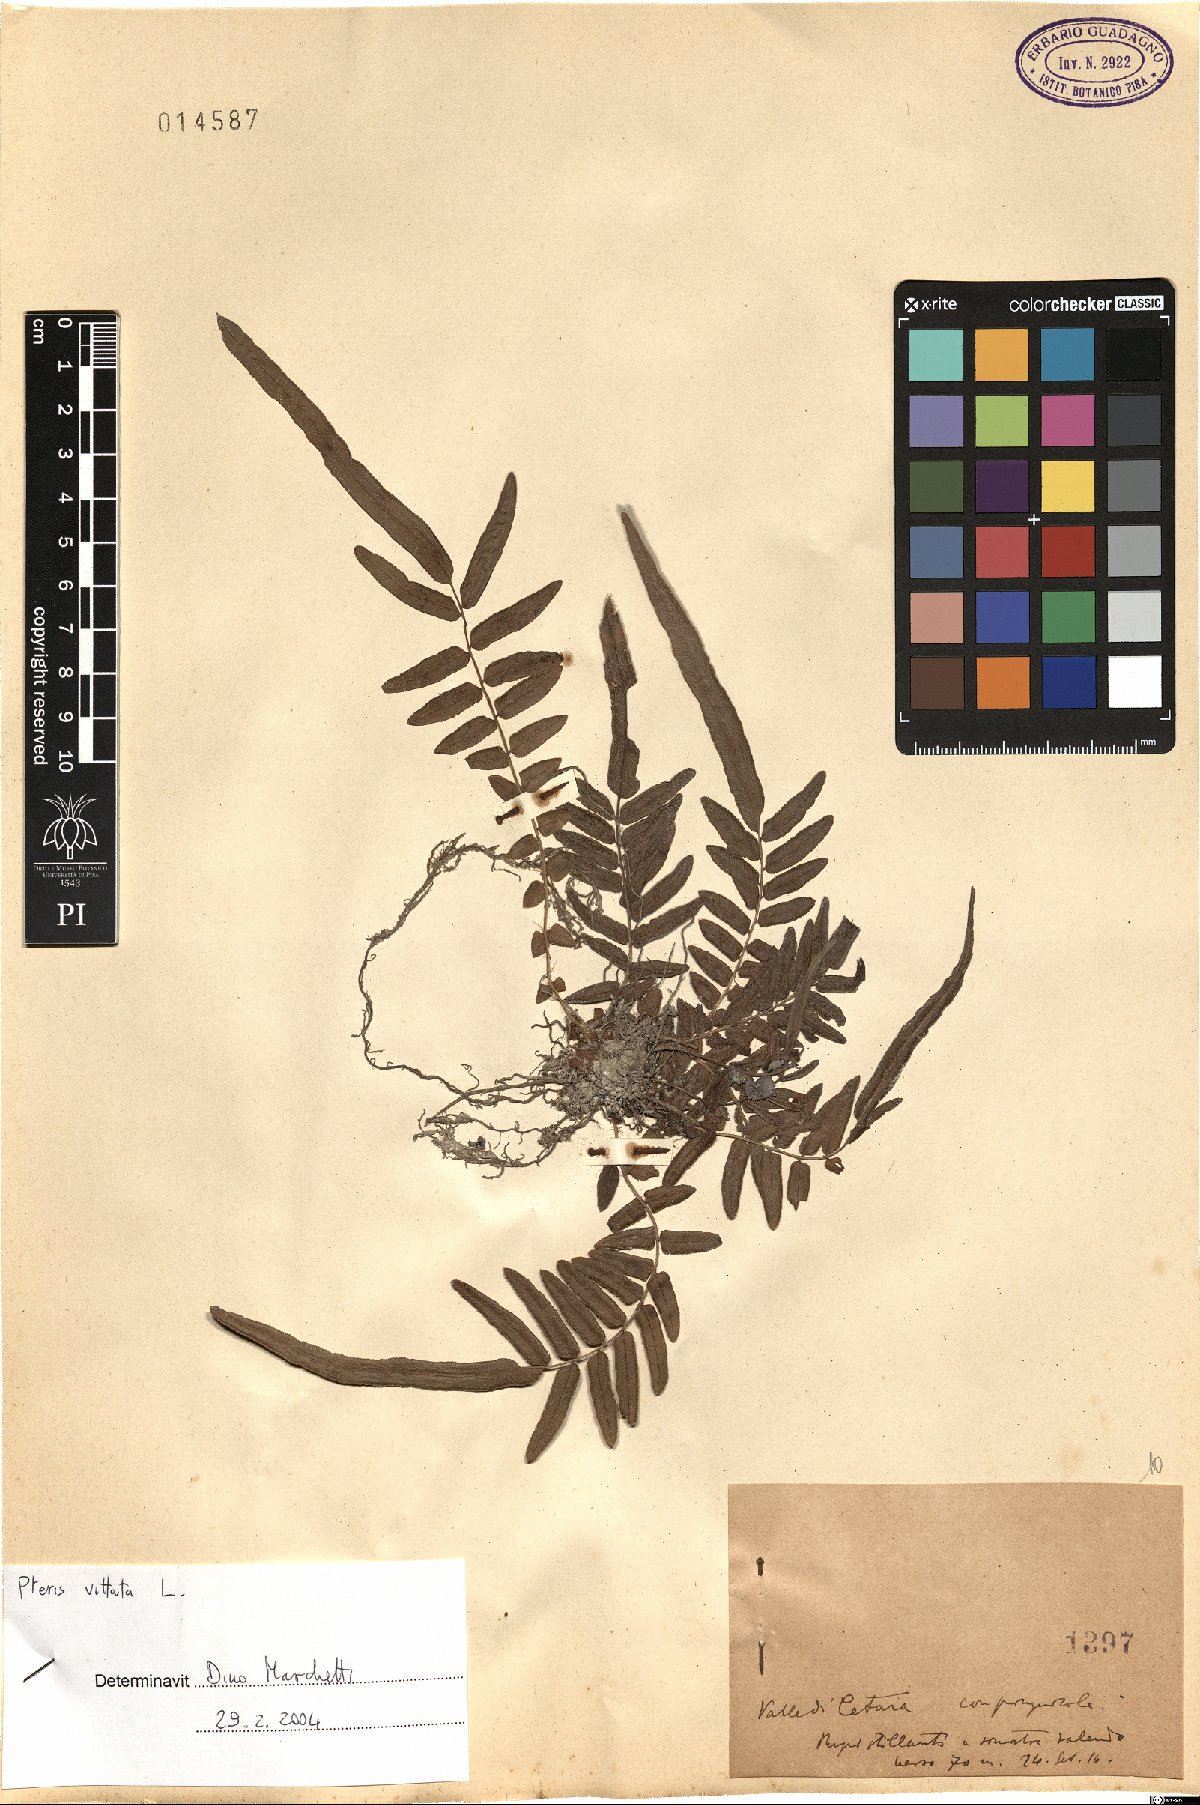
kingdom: Plantae
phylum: Tracheophyta
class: Polypodiopsida
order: Polypodiales
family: Pteridaceae
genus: Pteris
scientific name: Pteris vittata
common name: Ladder brake
